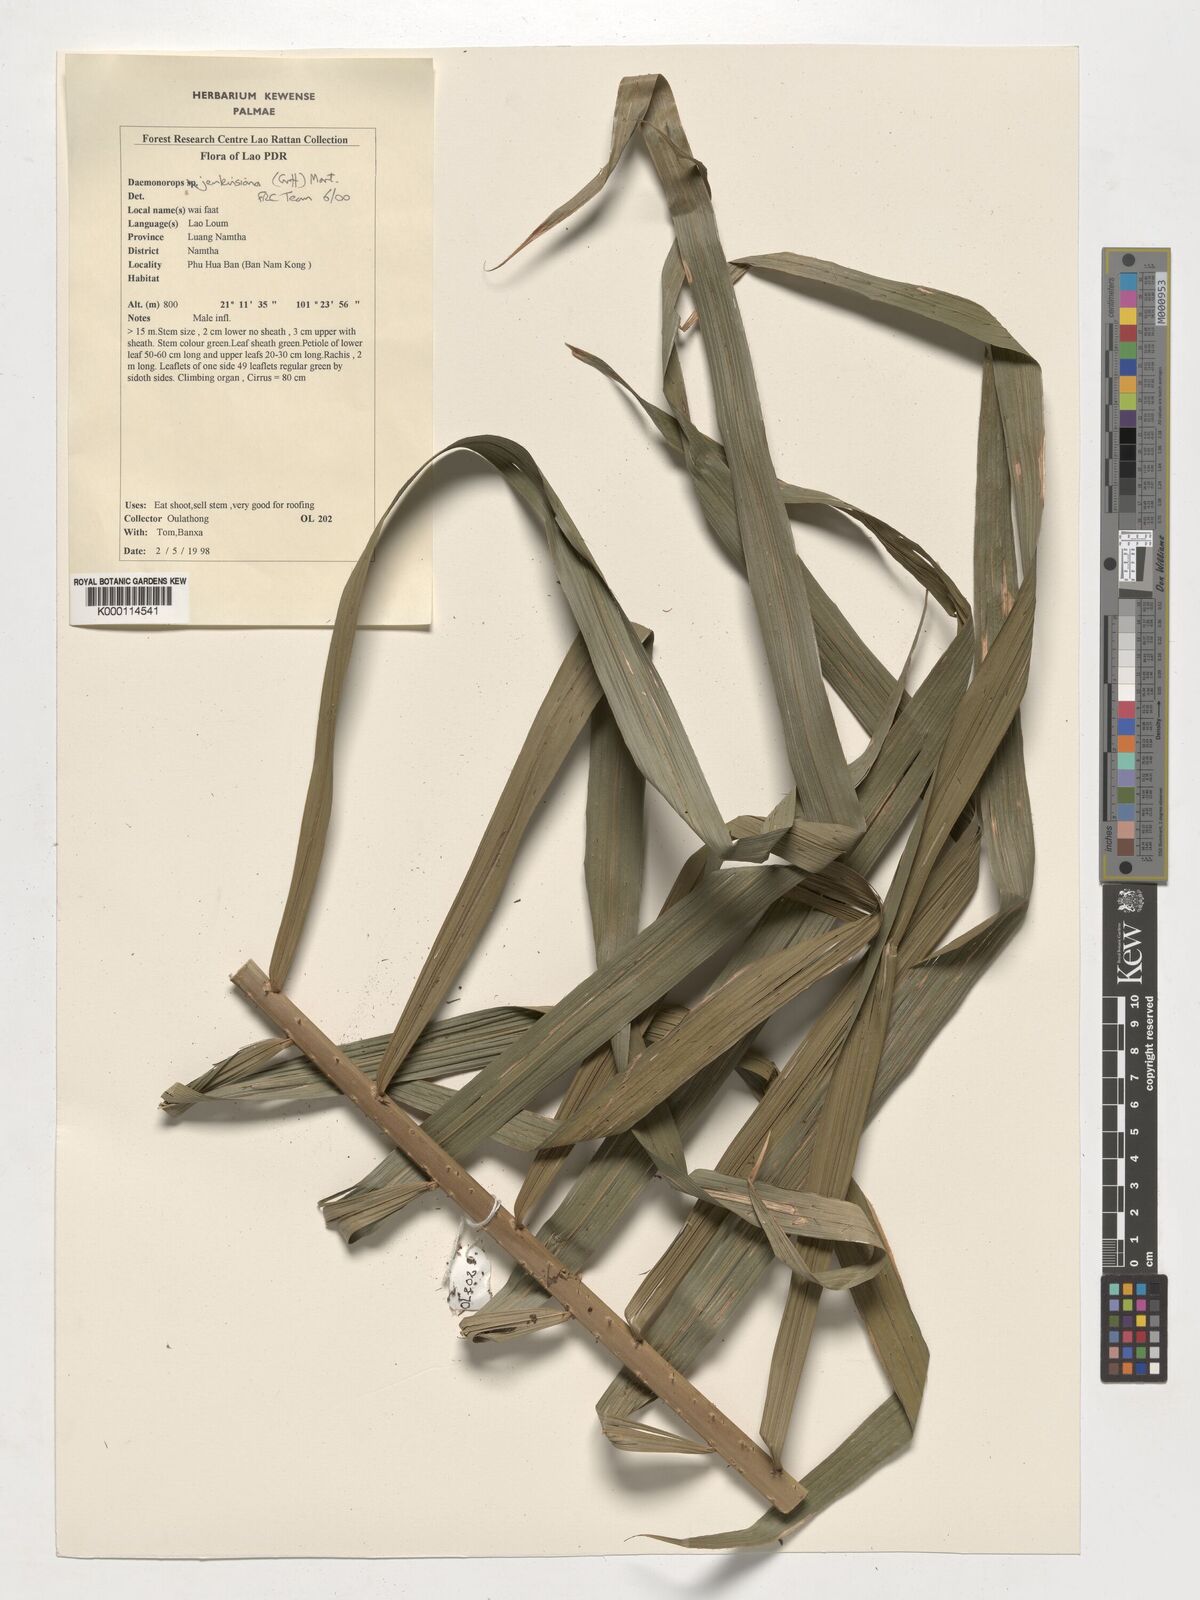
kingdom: Plantae
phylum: Tracheophyta
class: Liliopsida
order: Arecales
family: Arecaceae
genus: Calamus
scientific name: Calamus melanochaetes
